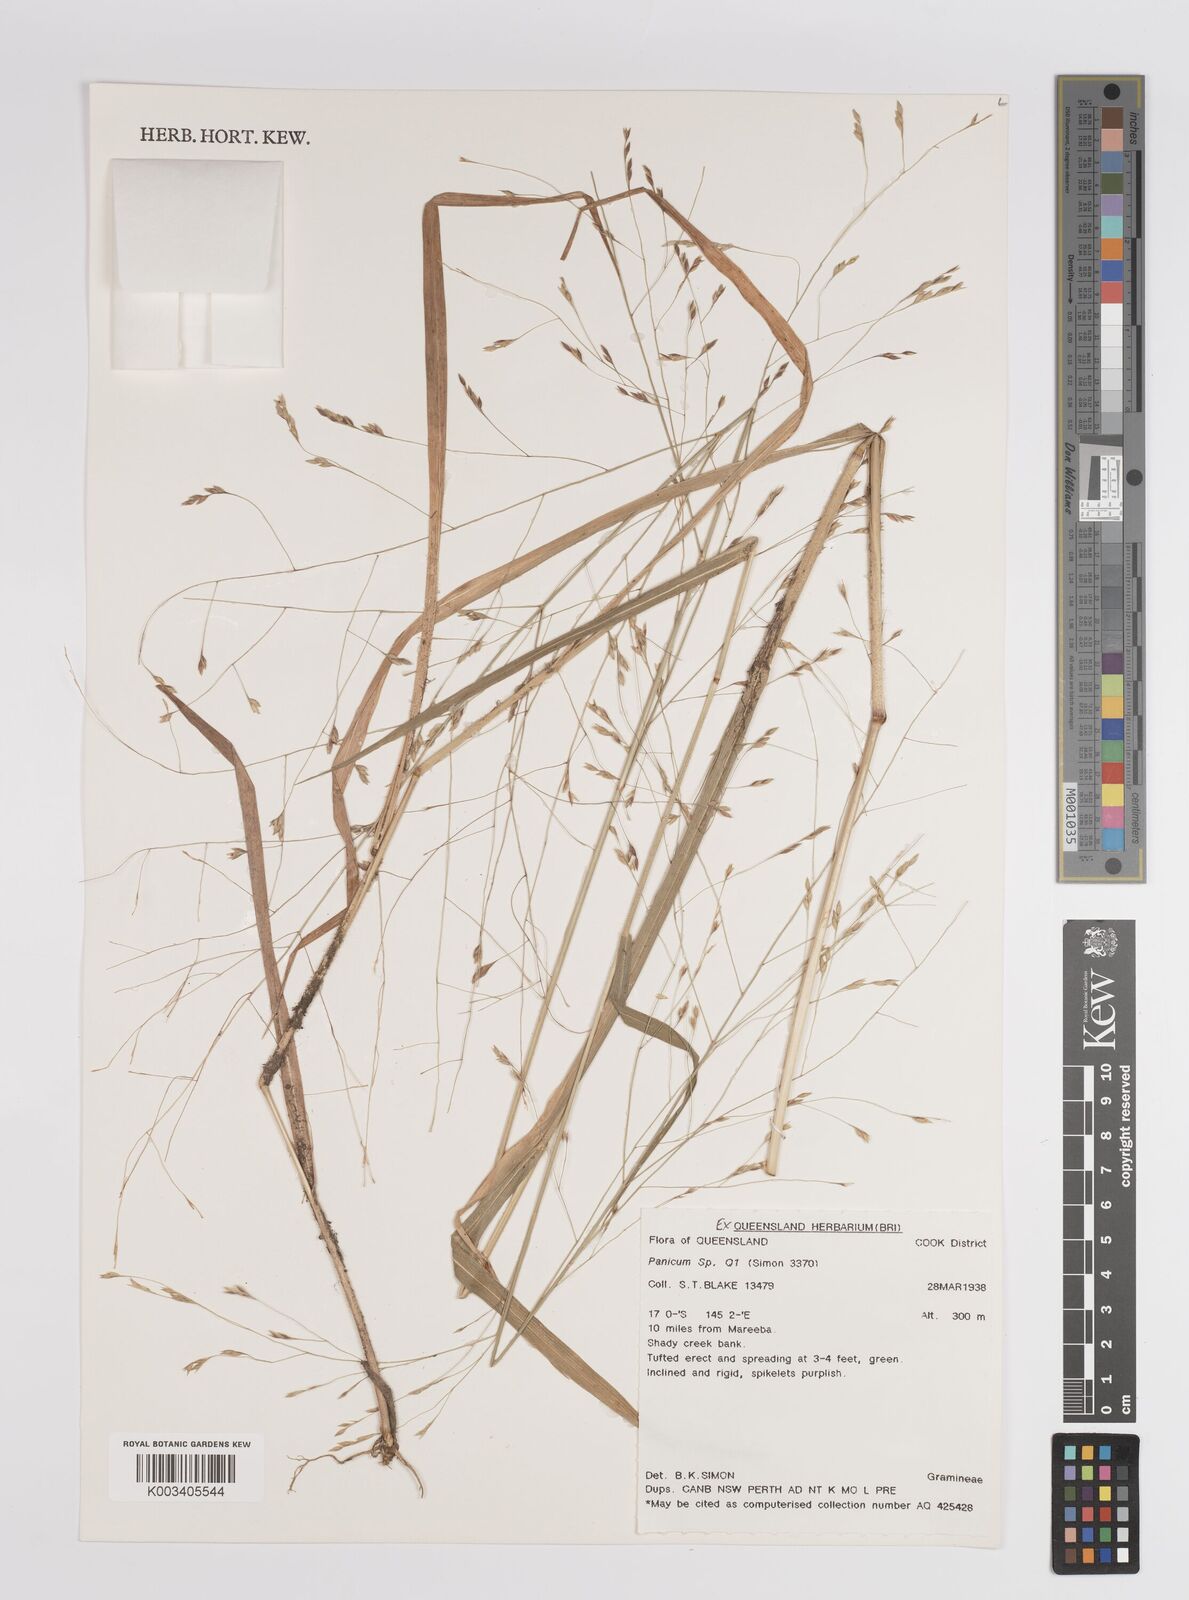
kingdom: Plantae
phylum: Tracheophyta
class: Liliopsida
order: Poales
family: Poaceae
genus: Panicum
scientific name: Panicum
